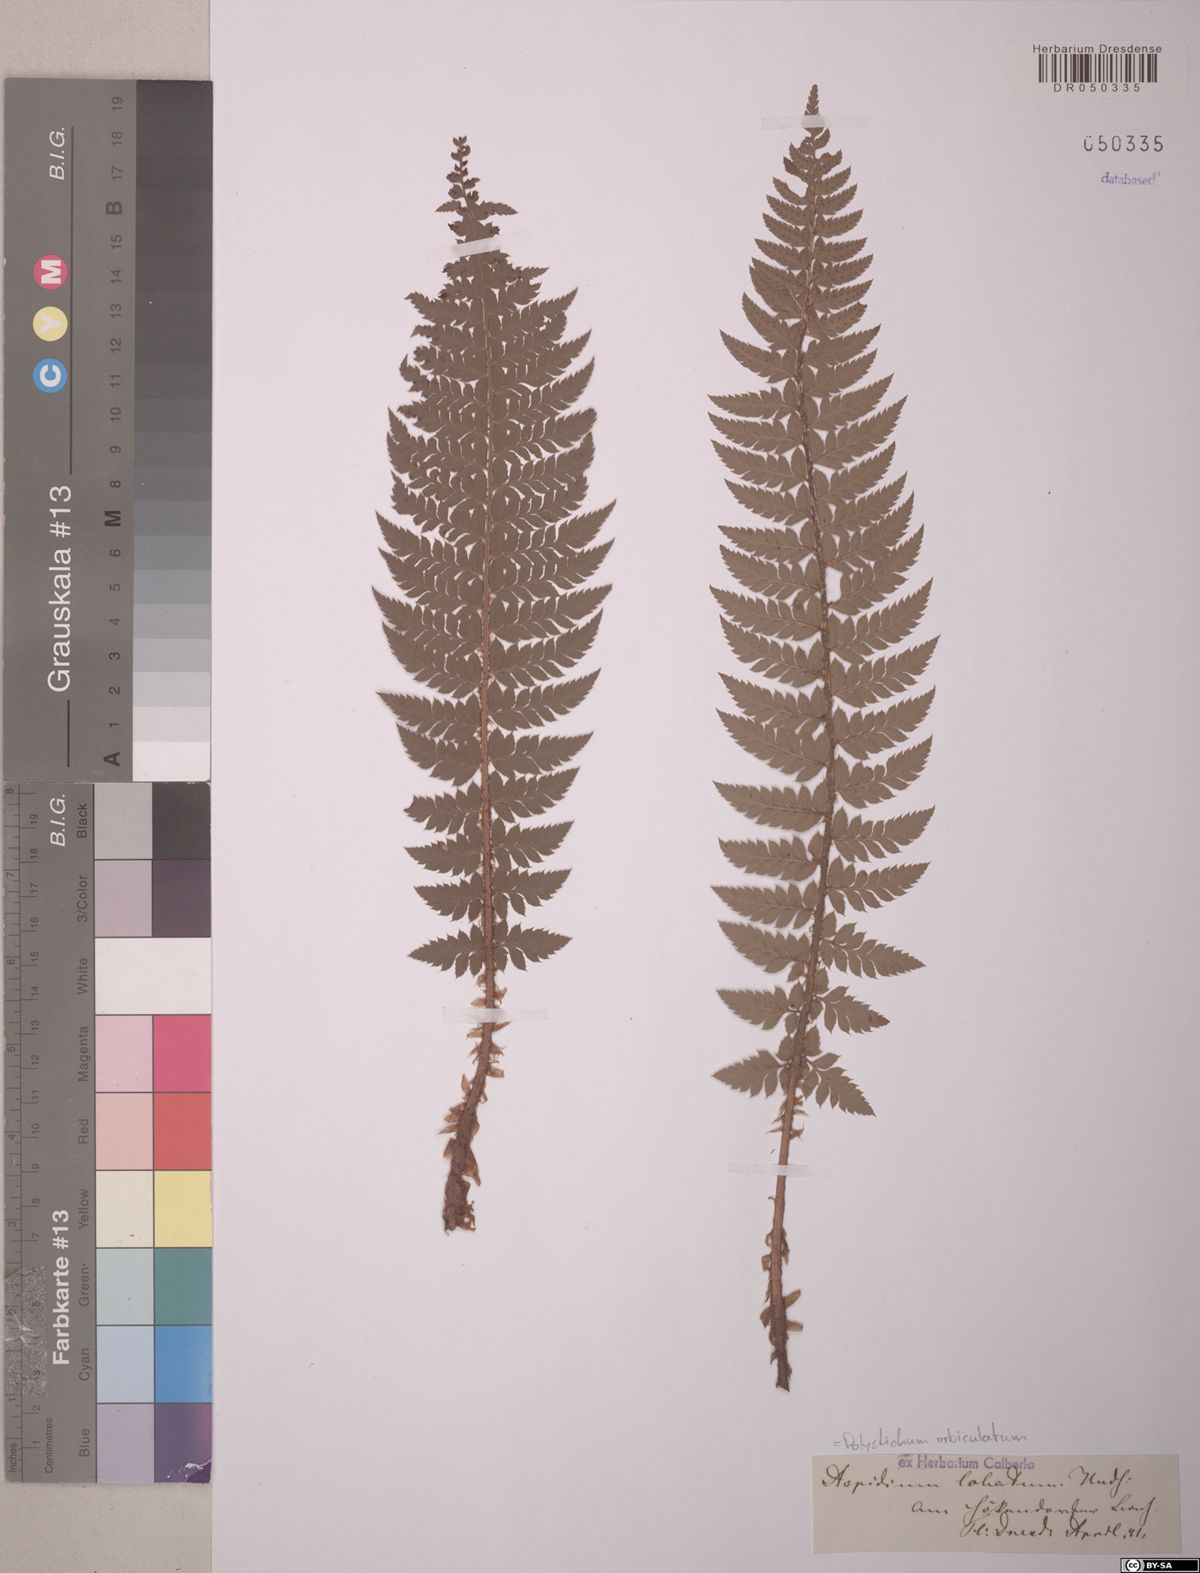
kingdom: Plantae
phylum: Tracheophyta
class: Polypodiopsida
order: Polypodiales
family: Dryopteridaceae
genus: Polystichum
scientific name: Polystichum aculeatum
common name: Hard shield-fern
